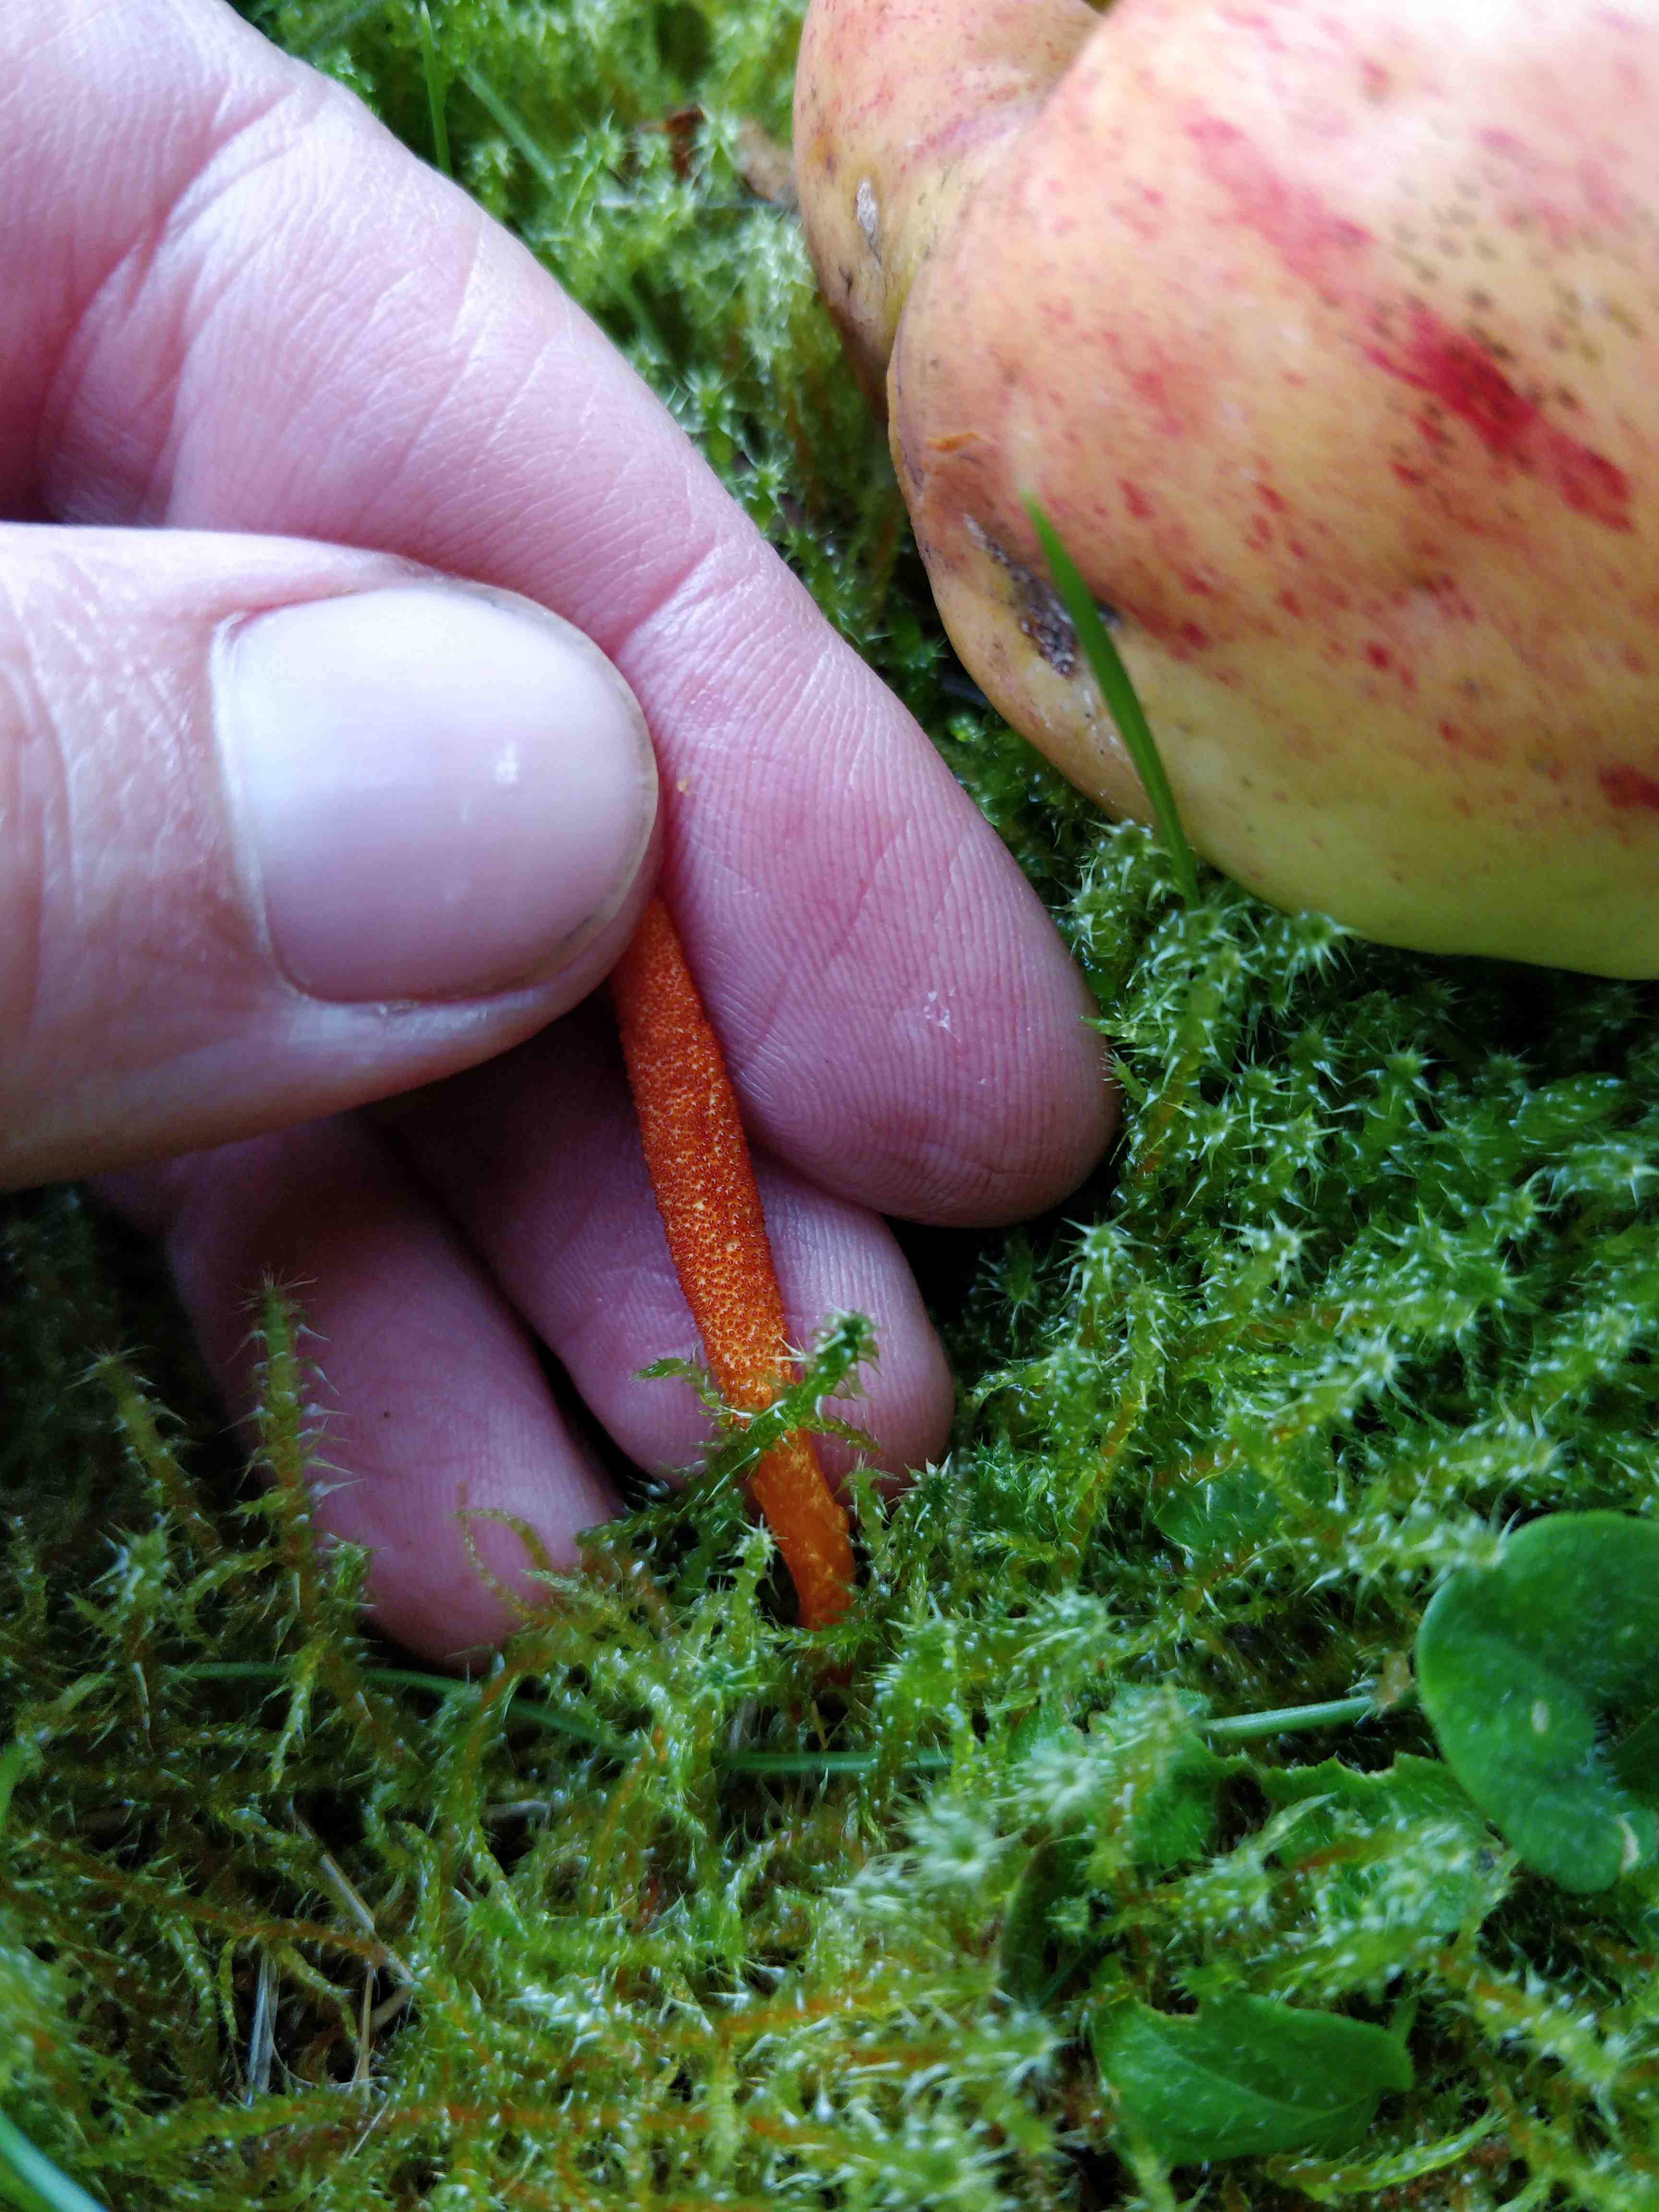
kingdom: Fungi
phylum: Ascomycota
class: Sordariomycetes
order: Hypocreales
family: Cordycipitaceae
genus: Cordyceps
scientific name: Cordyceps militaris
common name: puppe-snyltekølle
